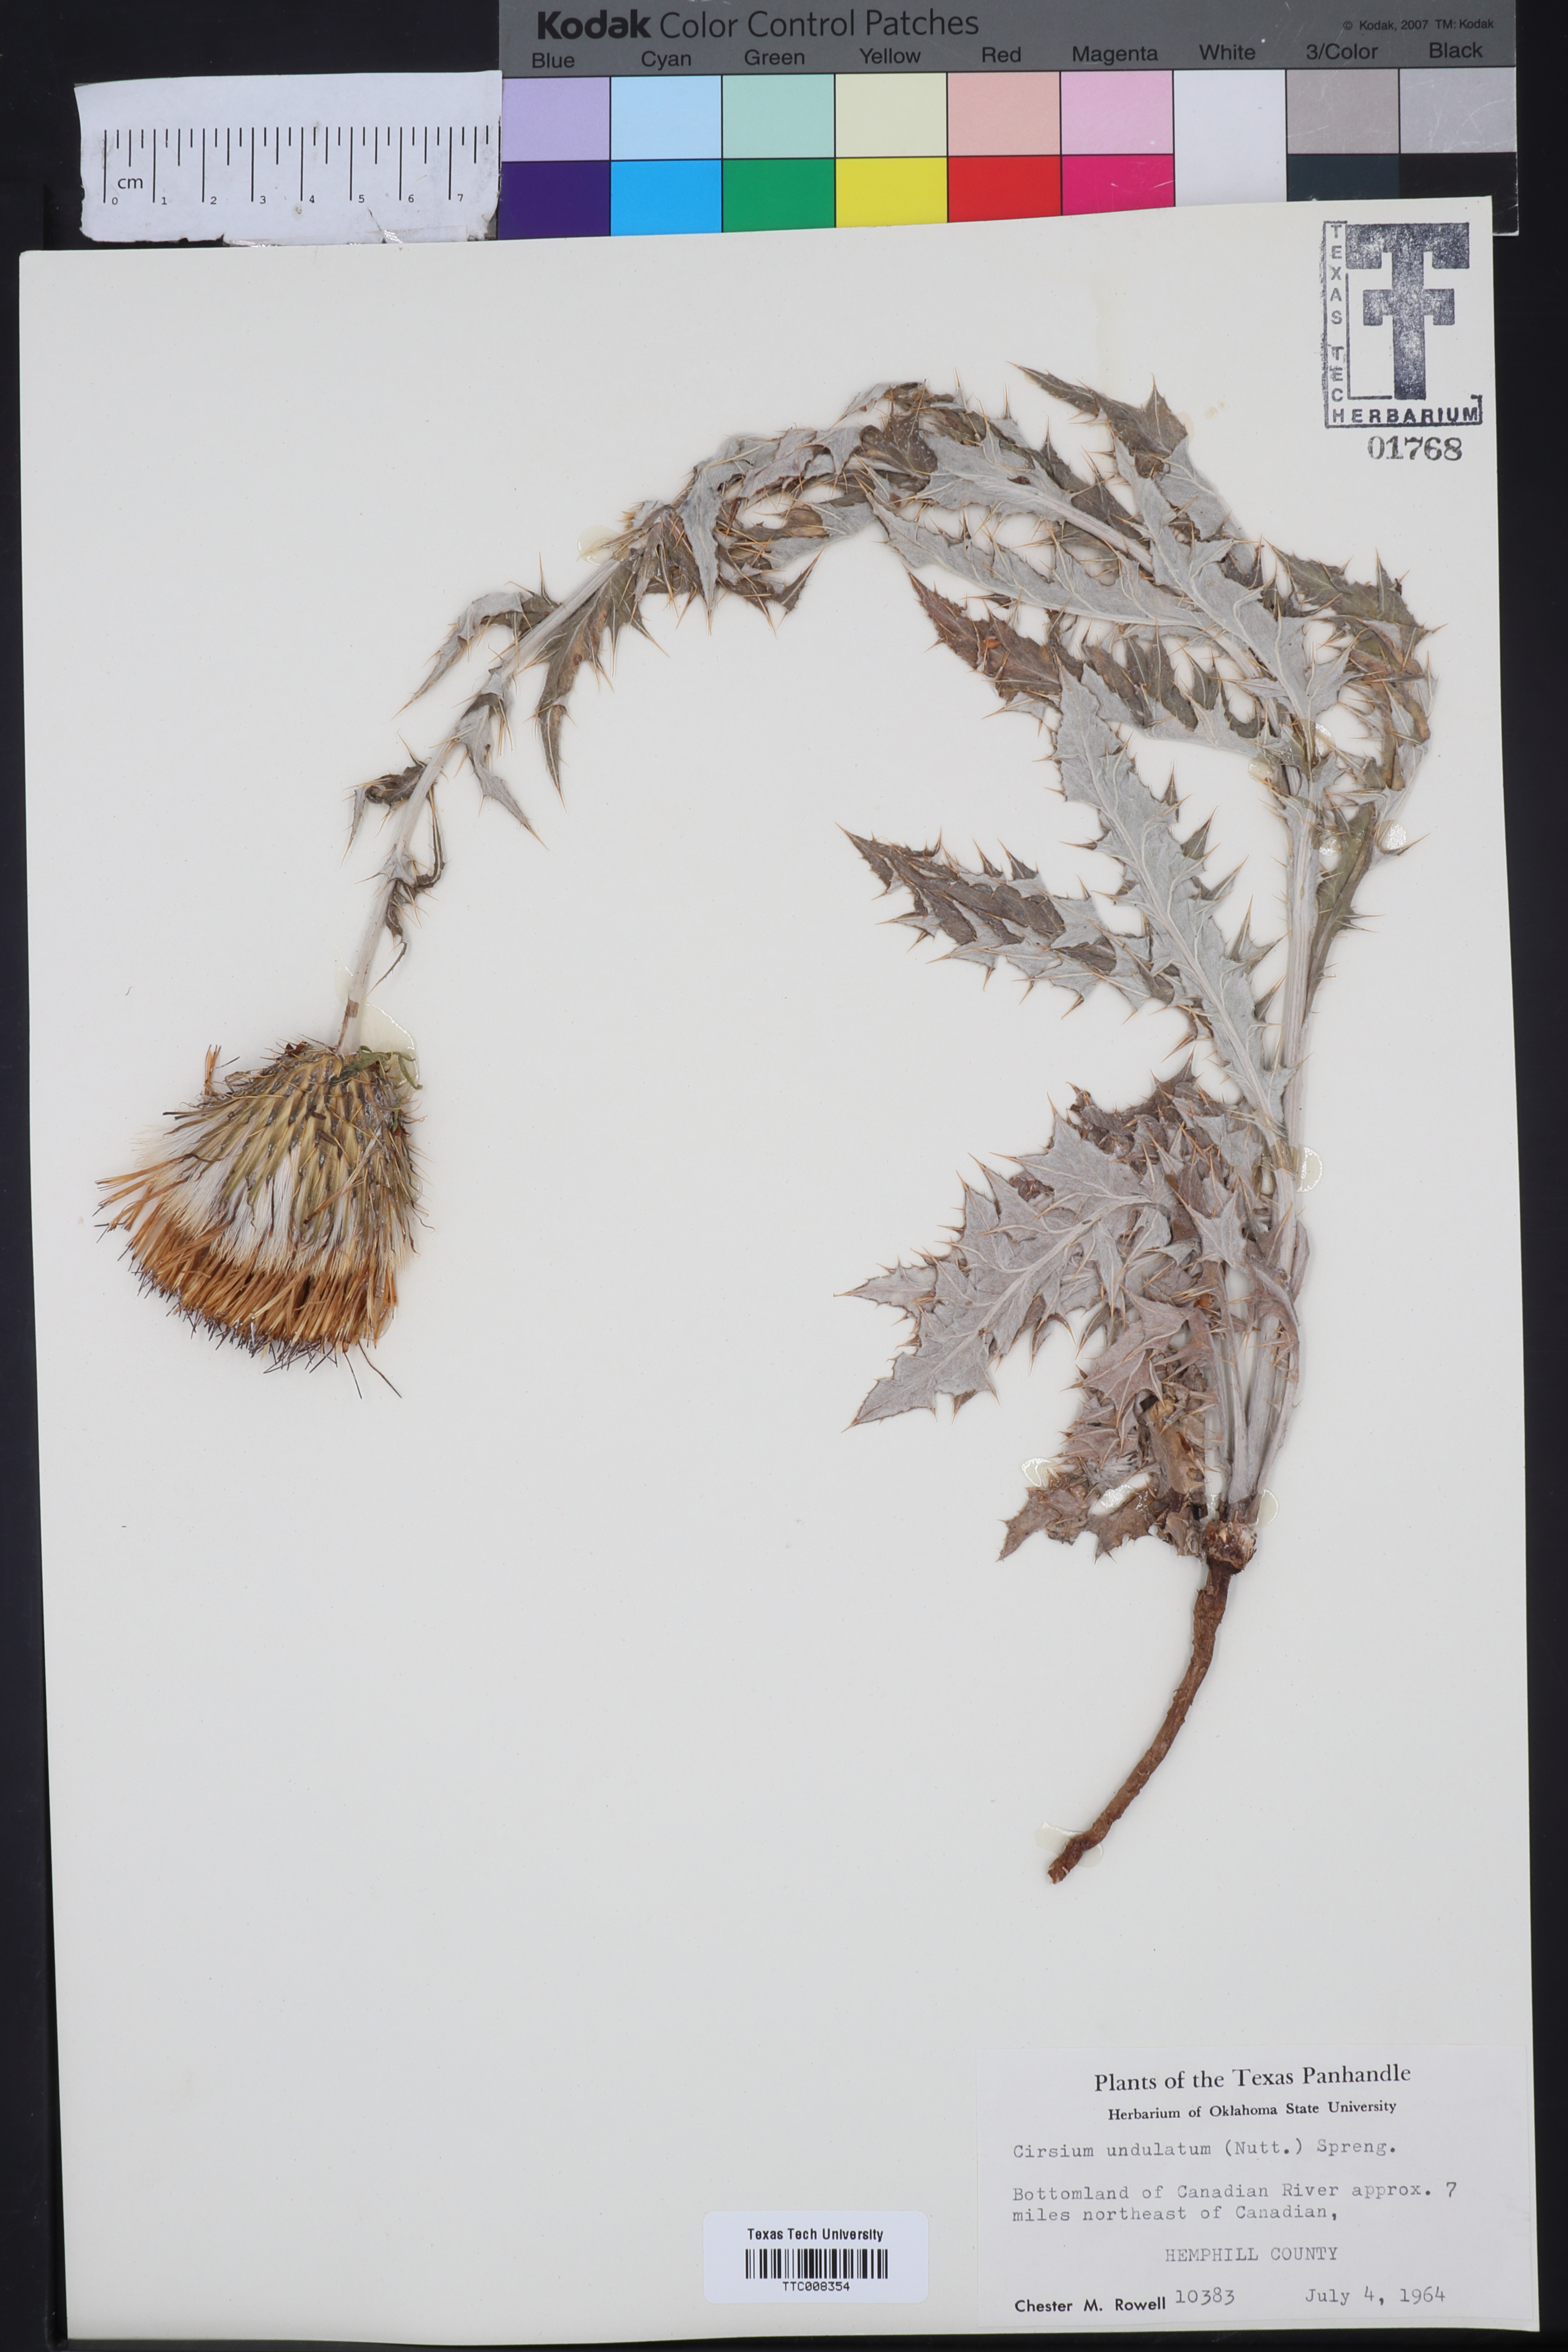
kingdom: Plantae
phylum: Tracheophyta
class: Magnoliopsida
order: Asterales
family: Asteraceae
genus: Cirsium
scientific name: Cirsium undulatum
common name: Pasture thistle
